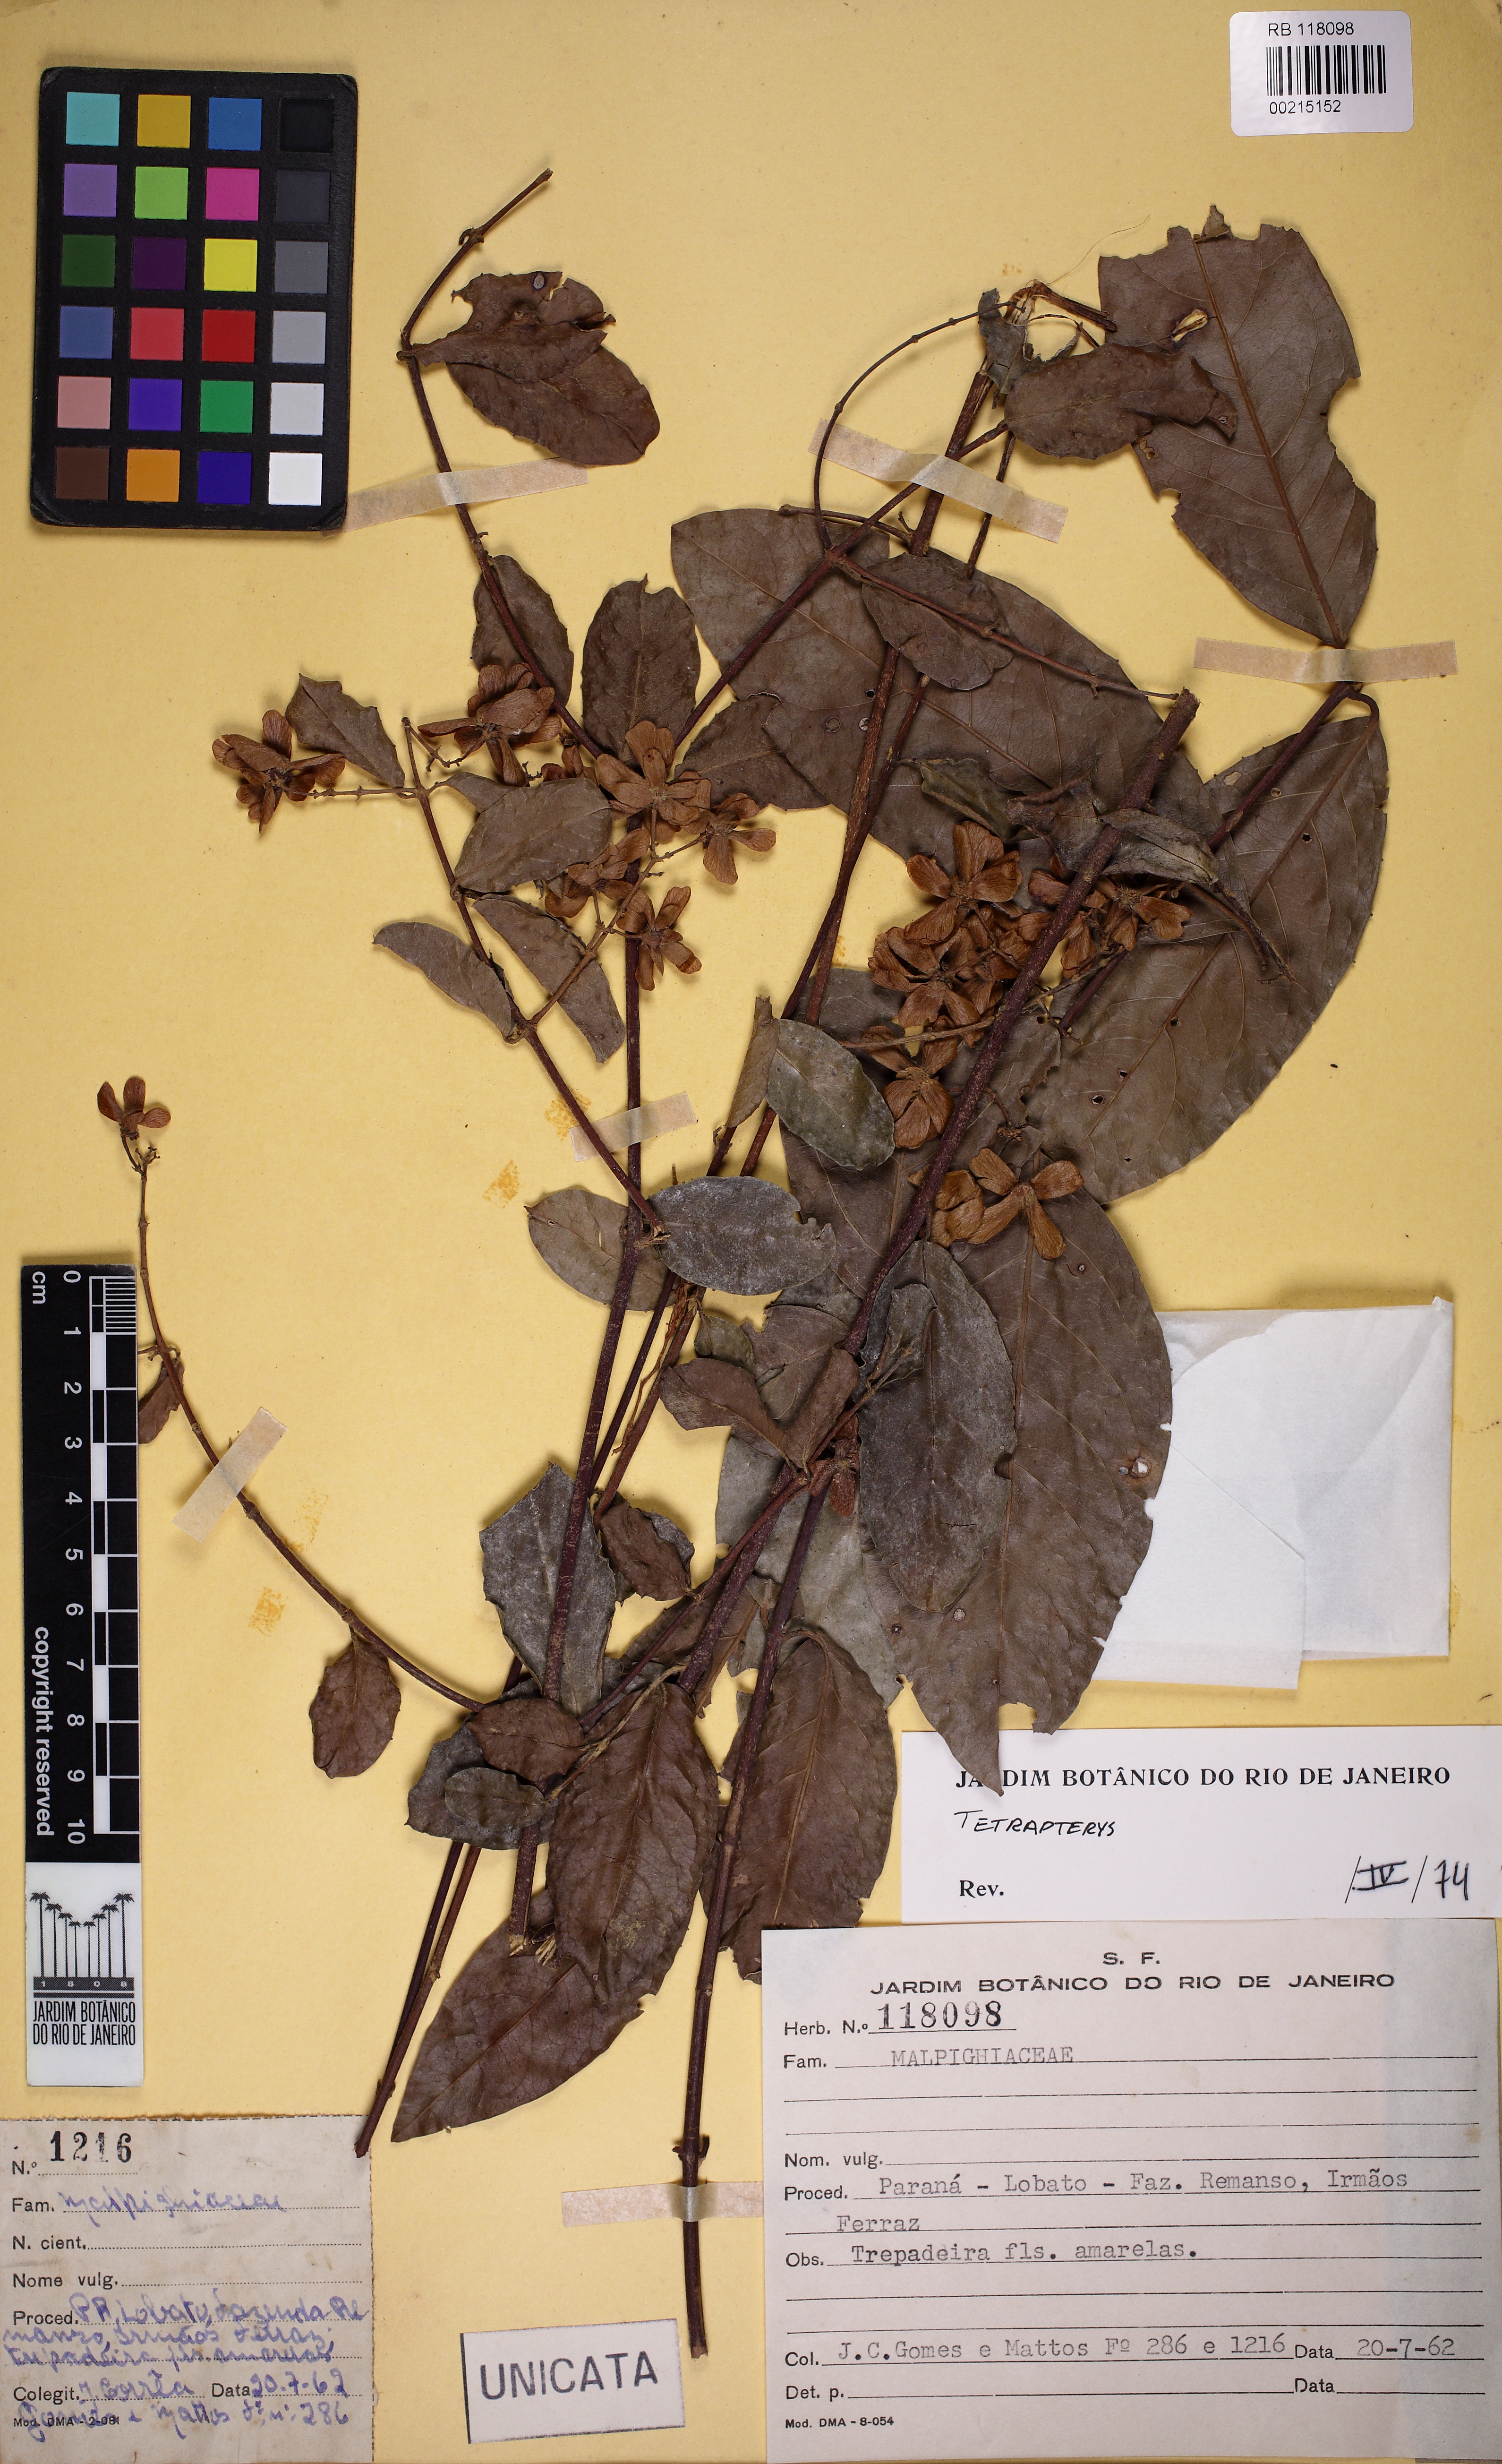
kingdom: Plantae
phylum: Tracheophyta
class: Magnoliopsida
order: Malpighiales
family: Malpighiaceae
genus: Niedenzuella
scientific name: Niedenzuella multiglandulosa
